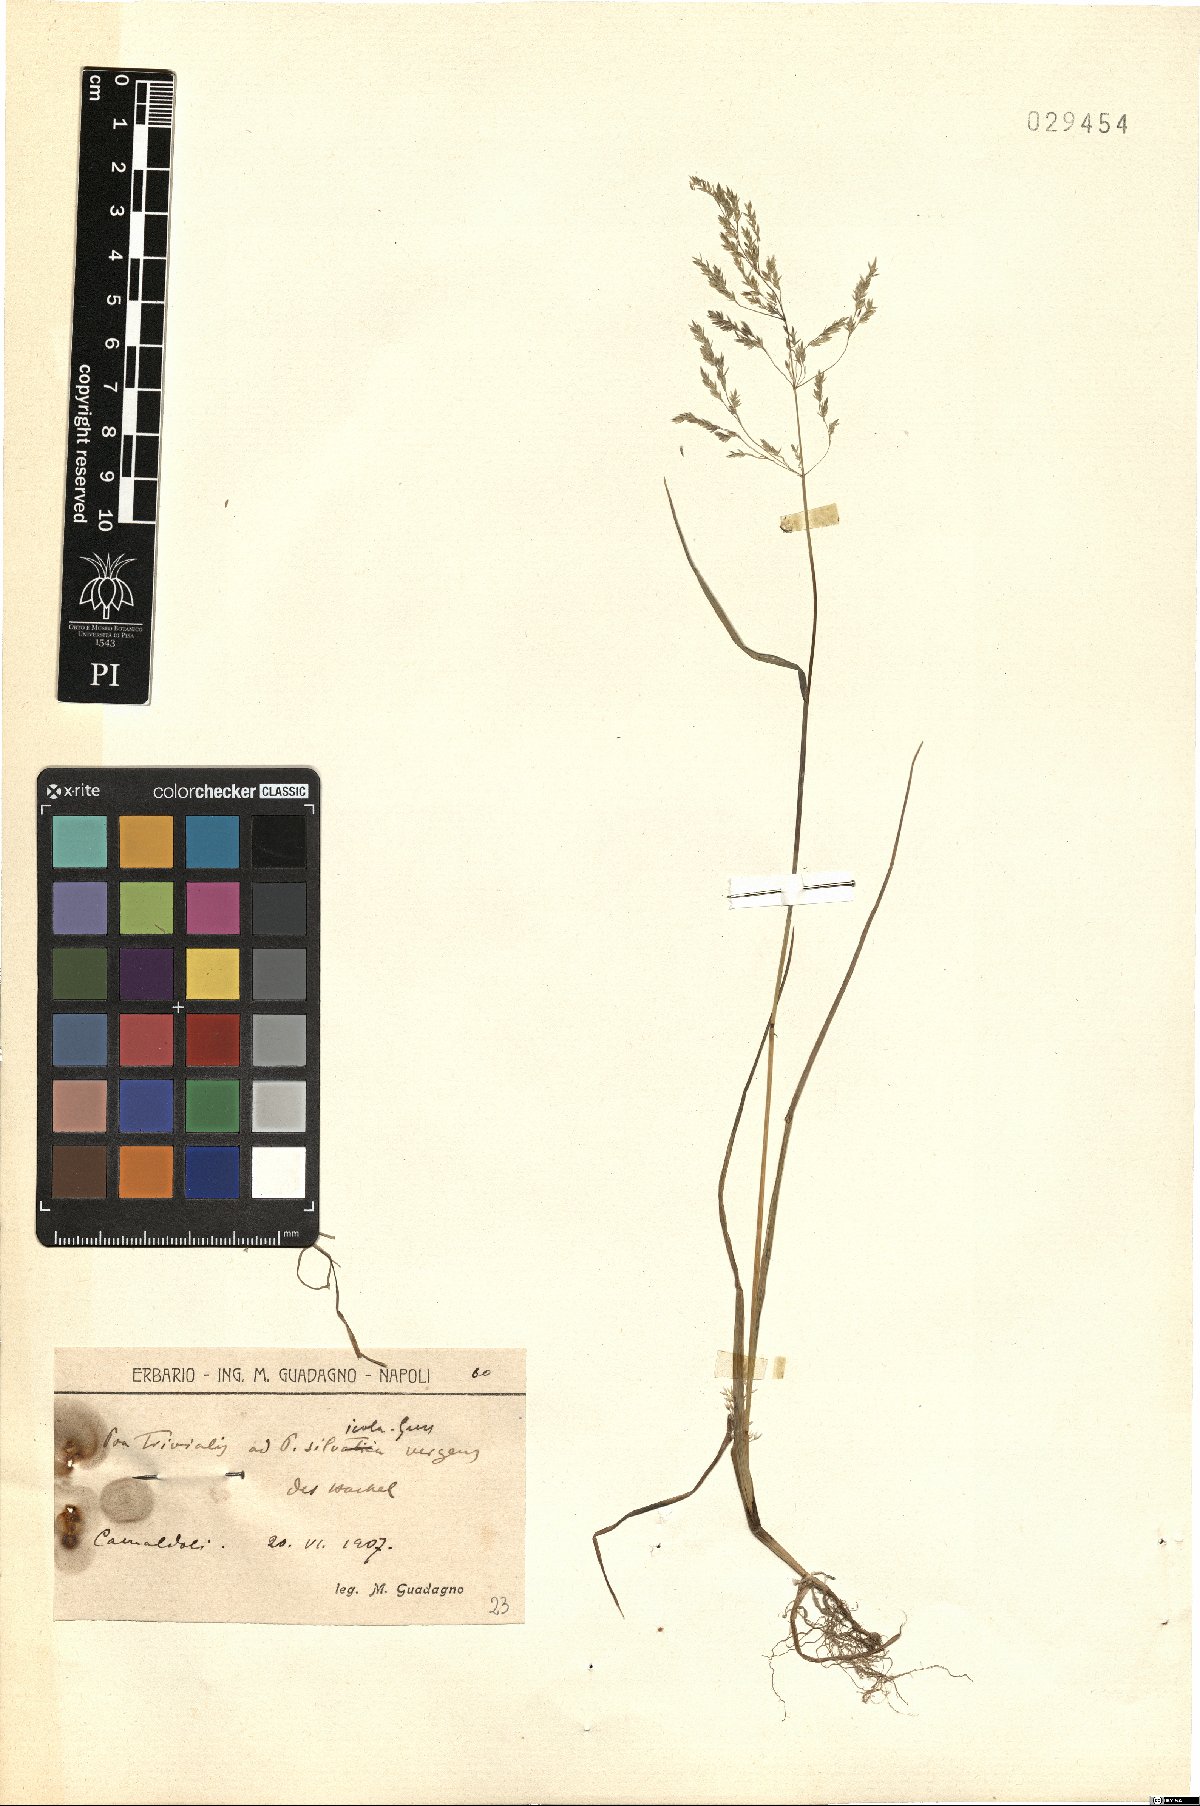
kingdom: Plantae
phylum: Tracheophyta
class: Liliopsida
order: Poales
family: Poaceae
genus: Poa
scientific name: Poa trivialis
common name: Rough bluegrass
